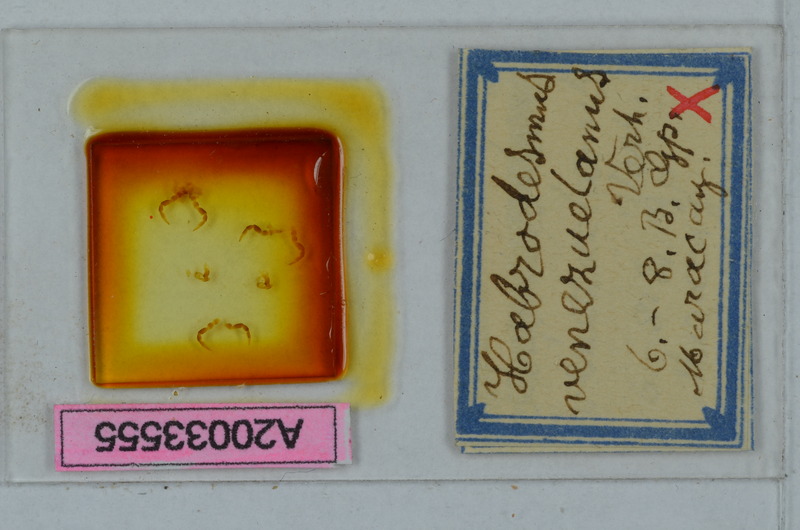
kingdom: Animalia
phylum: Arthropoda
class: Diplopoda
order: Polydesmida
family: Paradoxosomatidae
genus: Iulidesmus
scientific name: Iulidesmus venezuelanus
